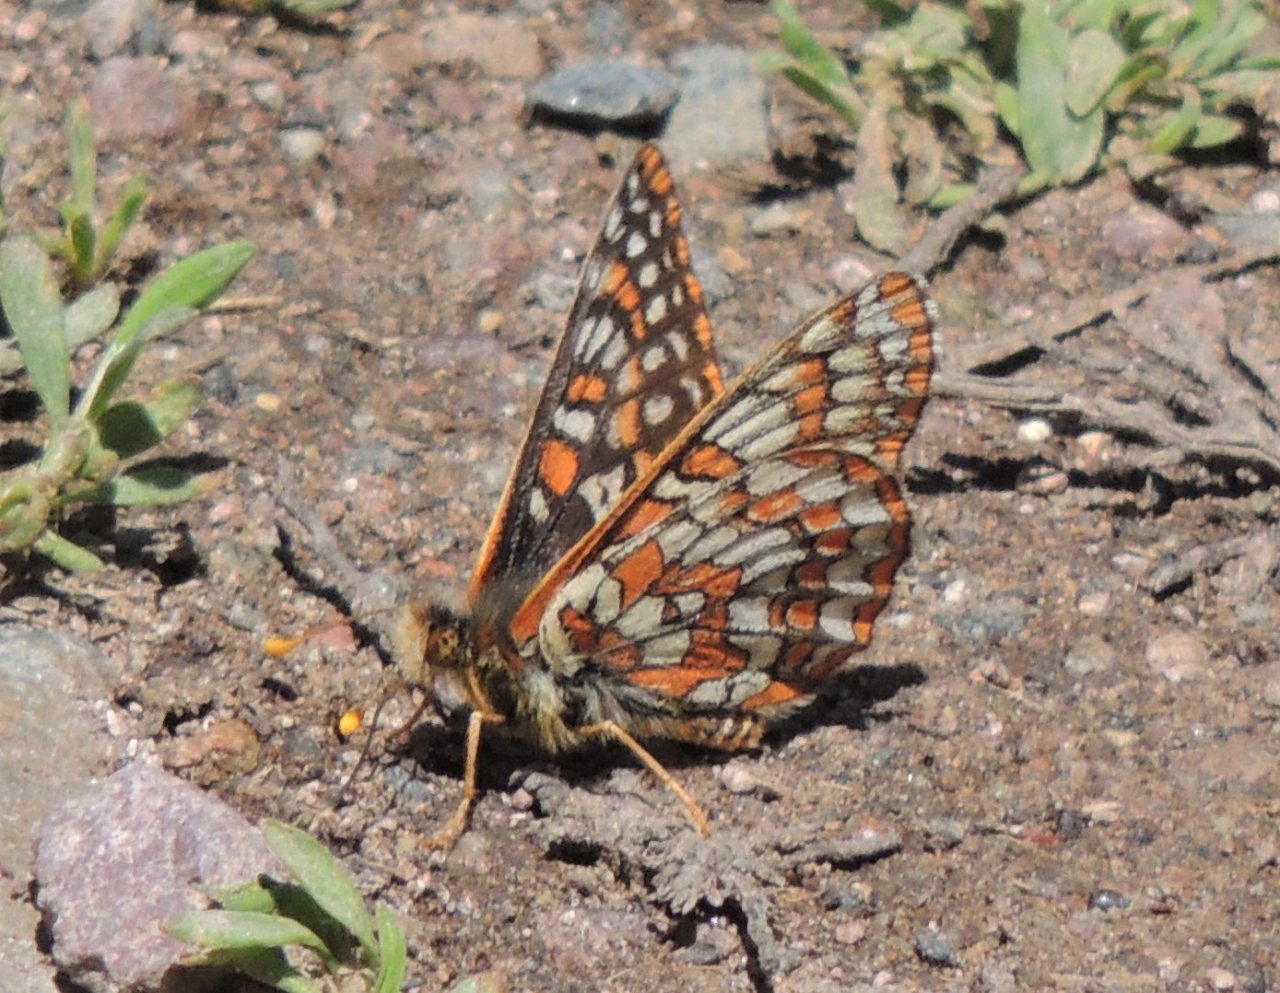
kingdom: Animalia
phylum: Arthropoda
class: Insecta
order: Lepidoptera
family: Nymphalidae
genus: Occidryas
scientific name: Occidryas editha
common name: Edith's Checkerspot
